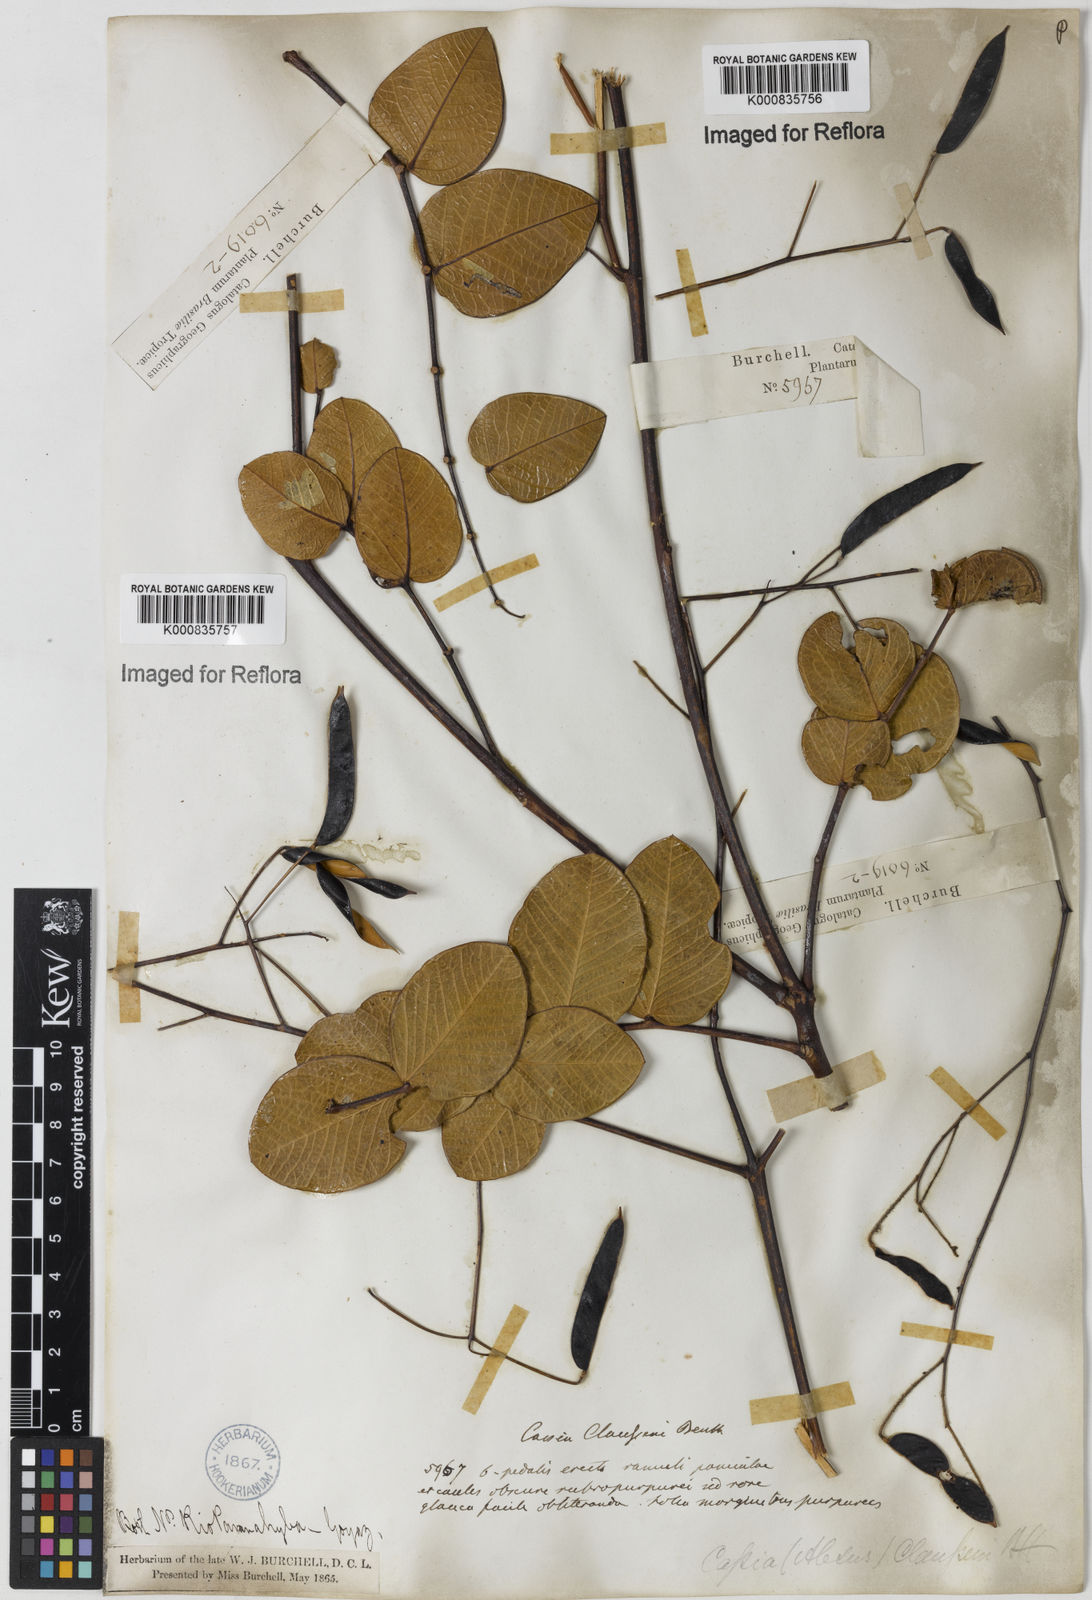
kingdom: Plantae
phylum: Tracheophyta
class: Magnoliopsida
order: Fabales
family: Fabaceae
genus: Chamaecrista
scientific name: Chamaecrista claussenii
